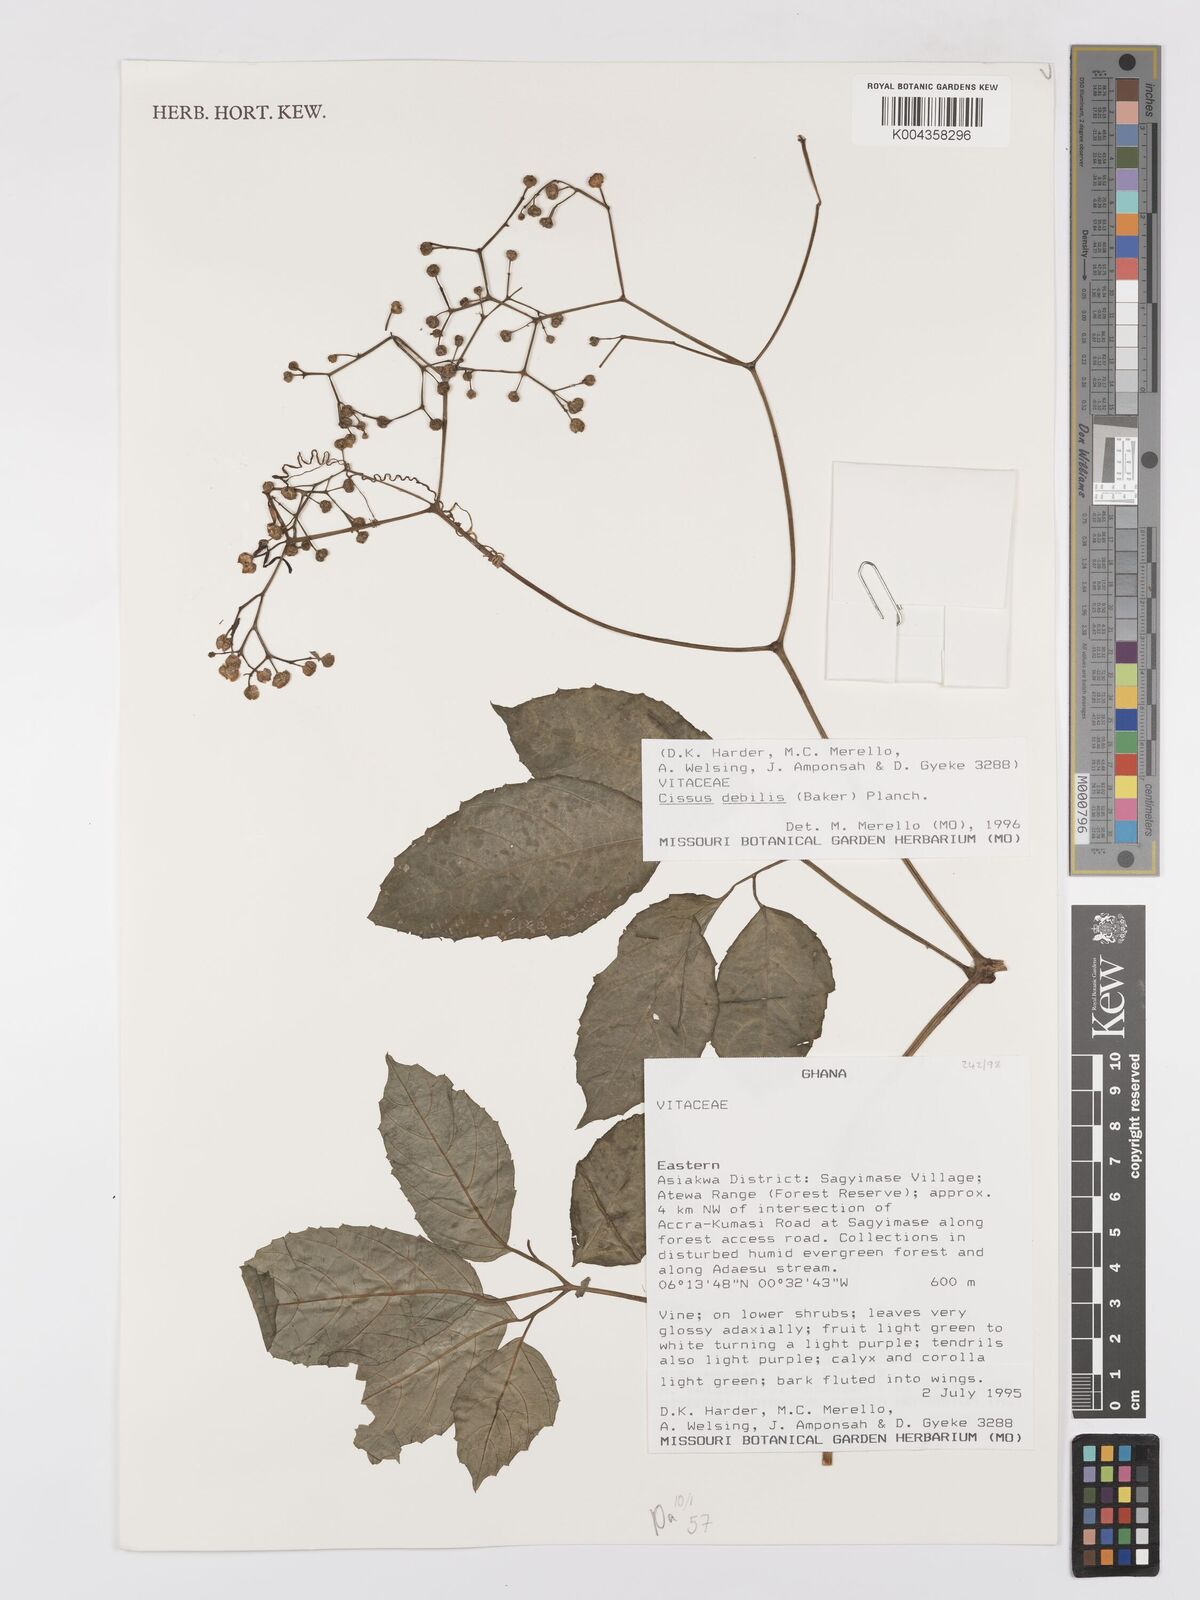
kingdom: Plantae
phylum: Tracheophyta
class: Magnoliopsida
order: Vitales
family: Vitaceae
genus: Afrocayratia
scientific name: Afrocayratia debilis
